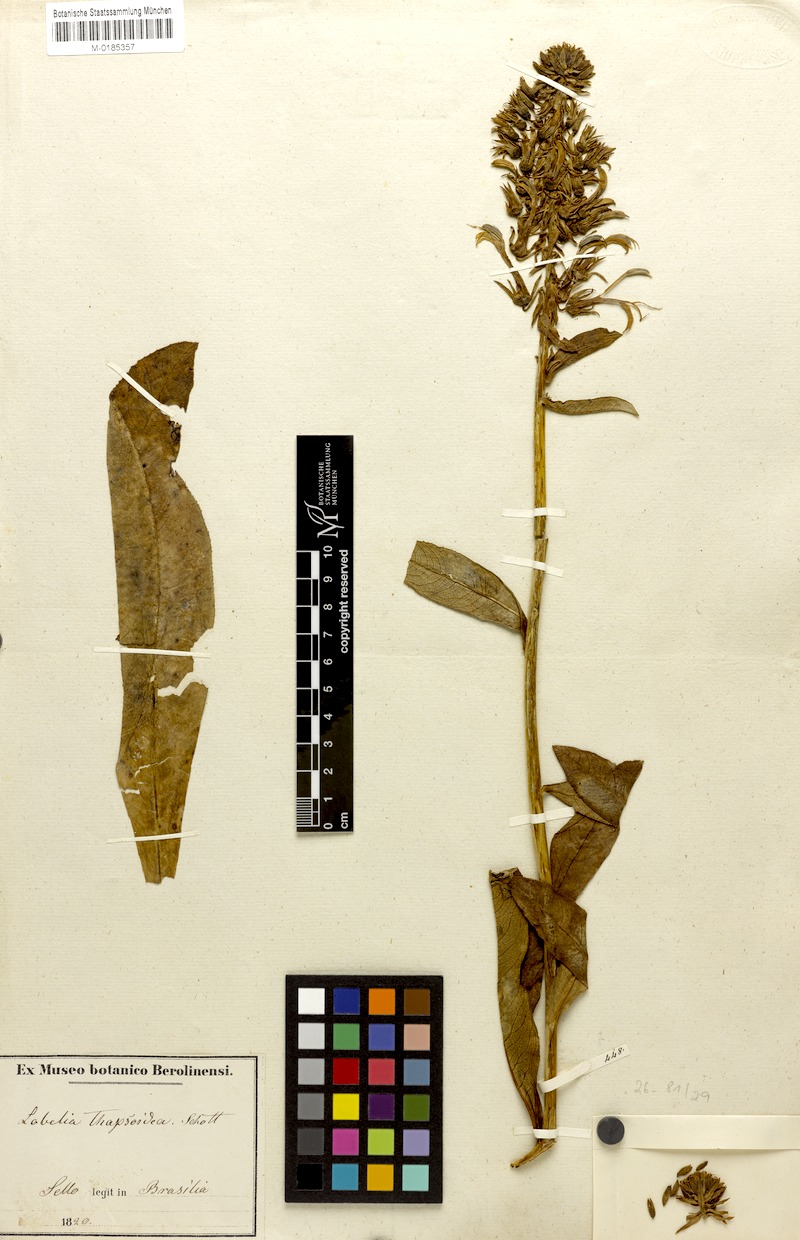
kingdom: Plantae
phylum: Tracheophyta
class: Magnoliopsida
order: Asterales
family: Campanulaceae
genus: Lobelia
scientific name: Lobelia thapsoidea
